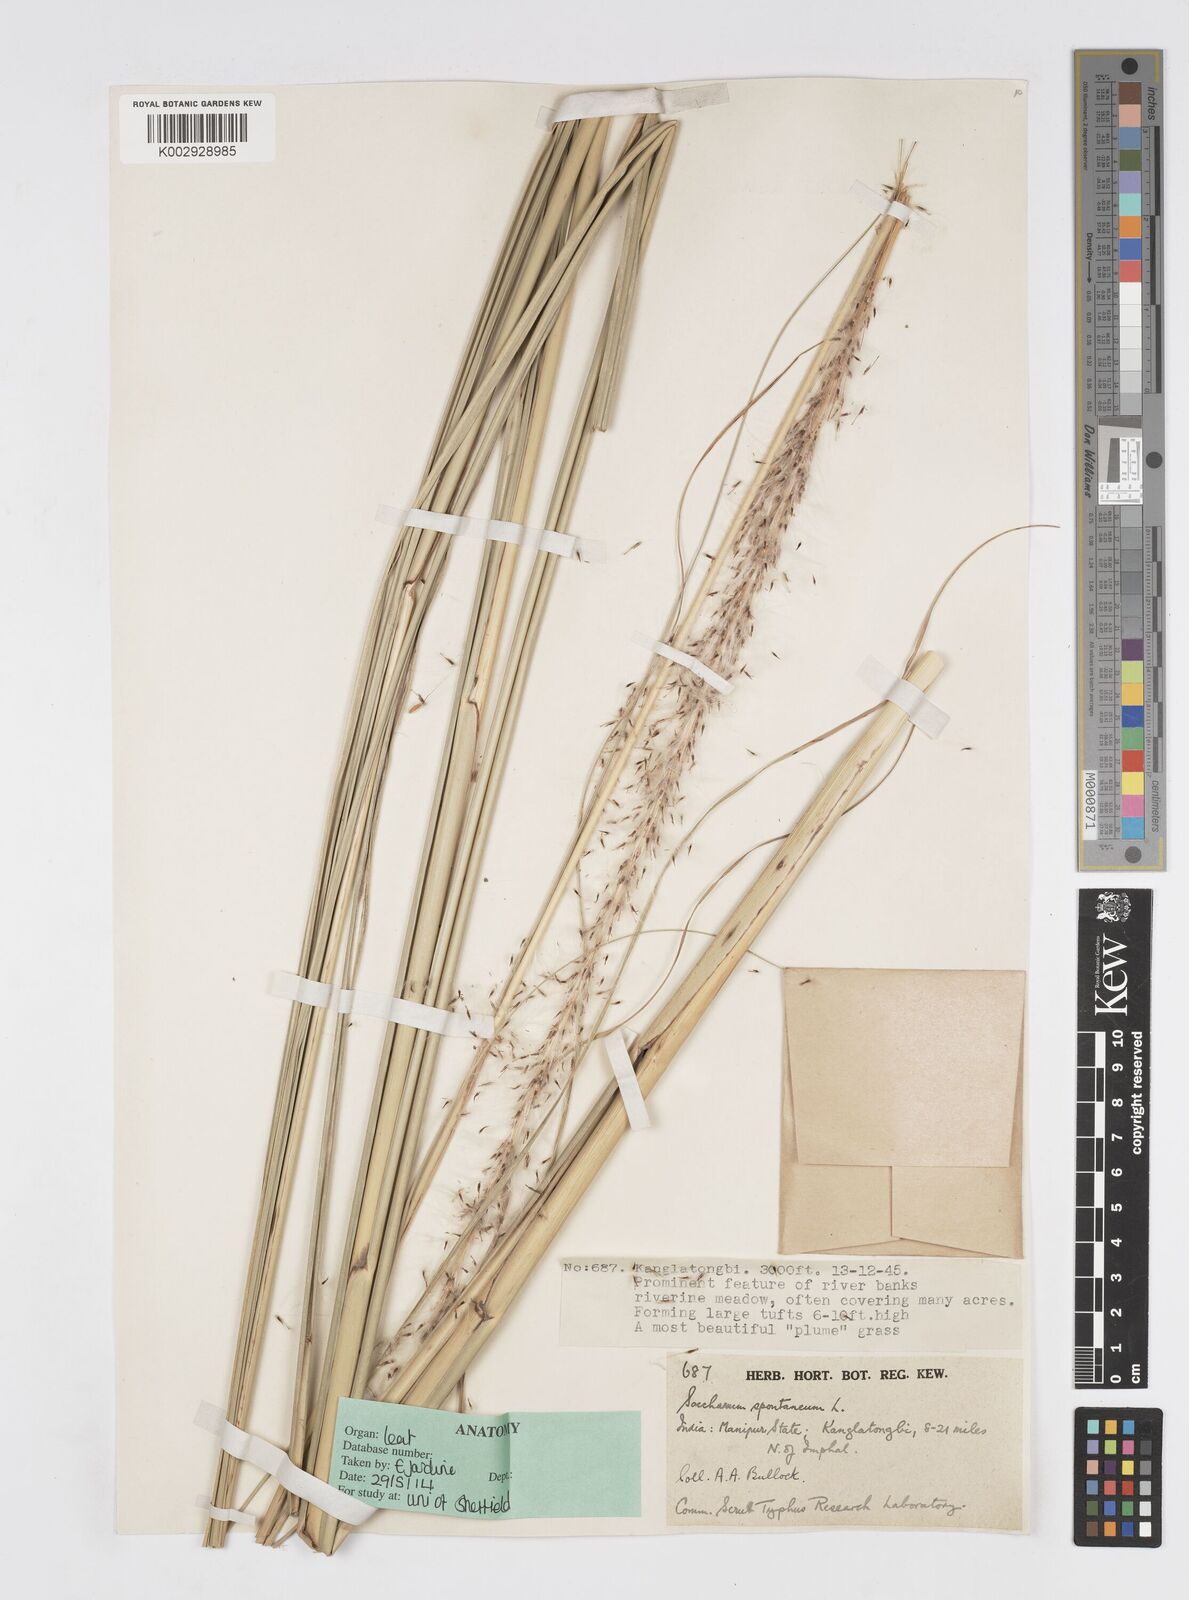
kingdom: Plantae
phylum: Tracheophyta
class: Liliopsida
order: Poales
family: Poaceae
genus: Saccharum
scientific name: Saccharum spontaneum
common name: Wild sugarcane
